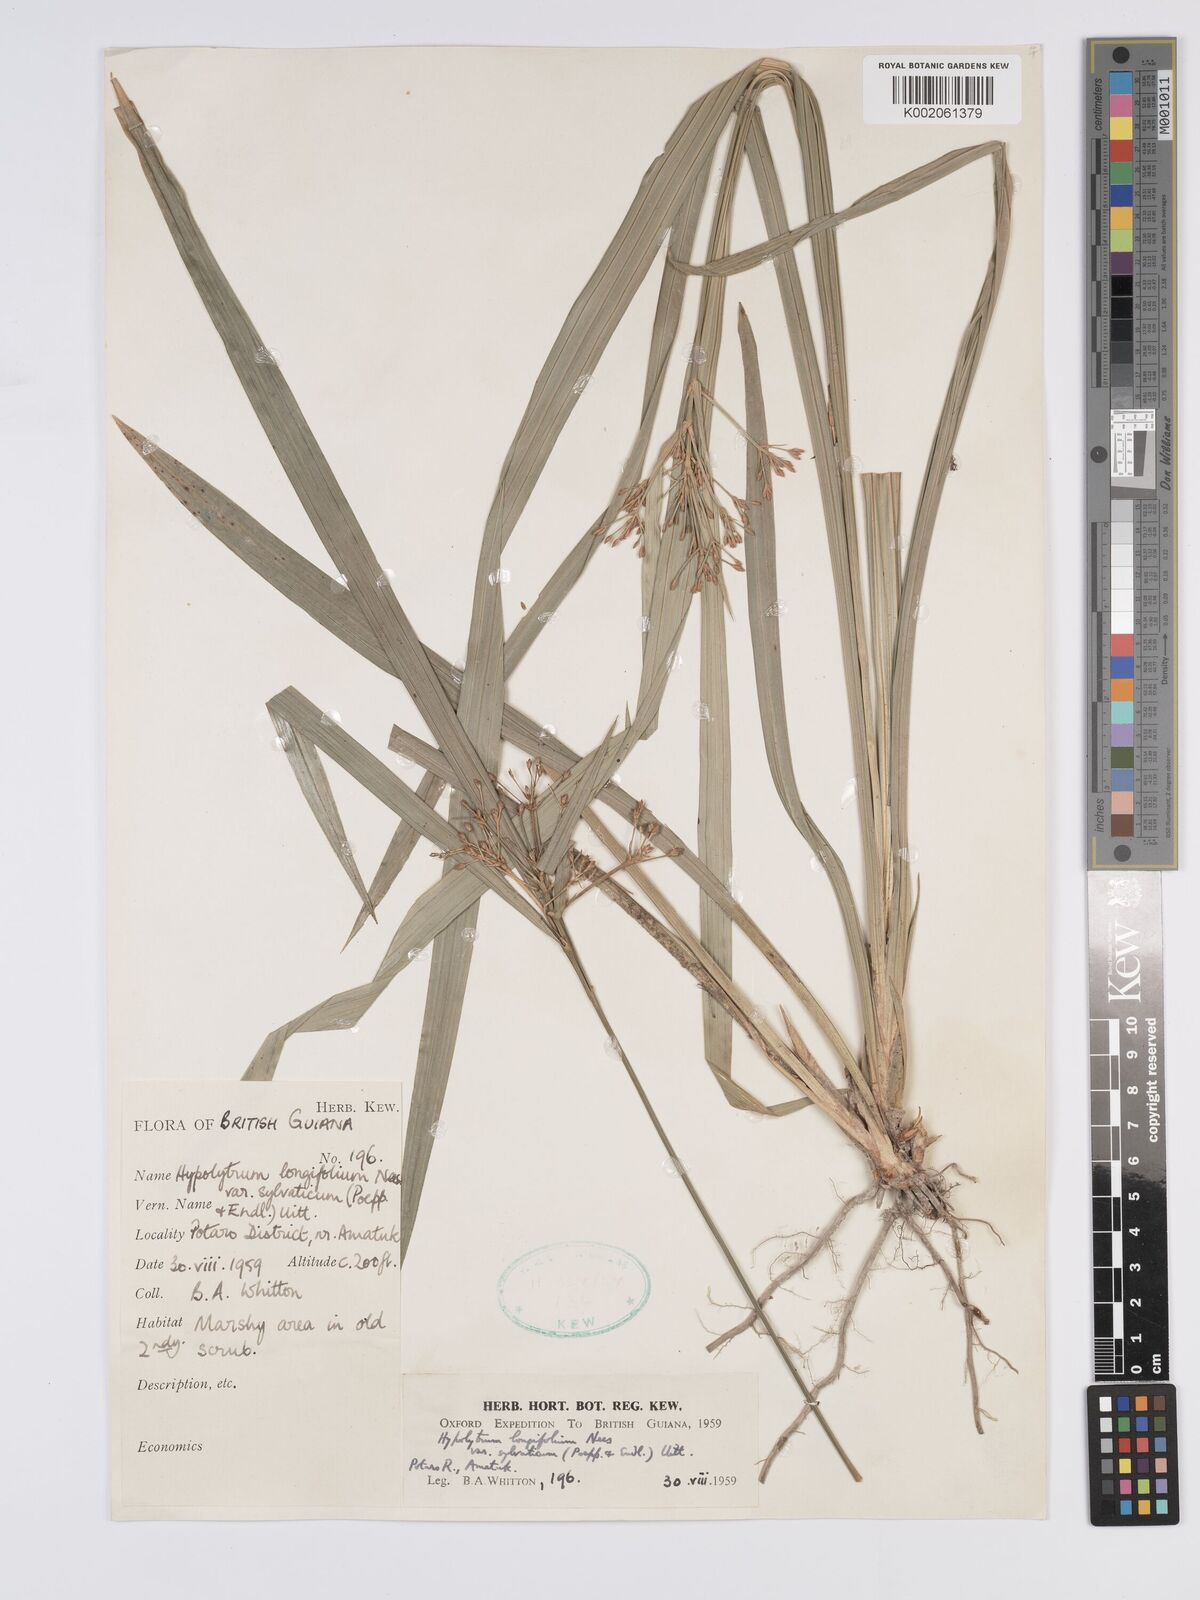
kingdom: Plantae
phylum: Tracheophyta
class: Liliopsida
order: Poales
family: Cyperaceae
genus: Hypolytrum
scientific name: Hypolytrum longifolium
